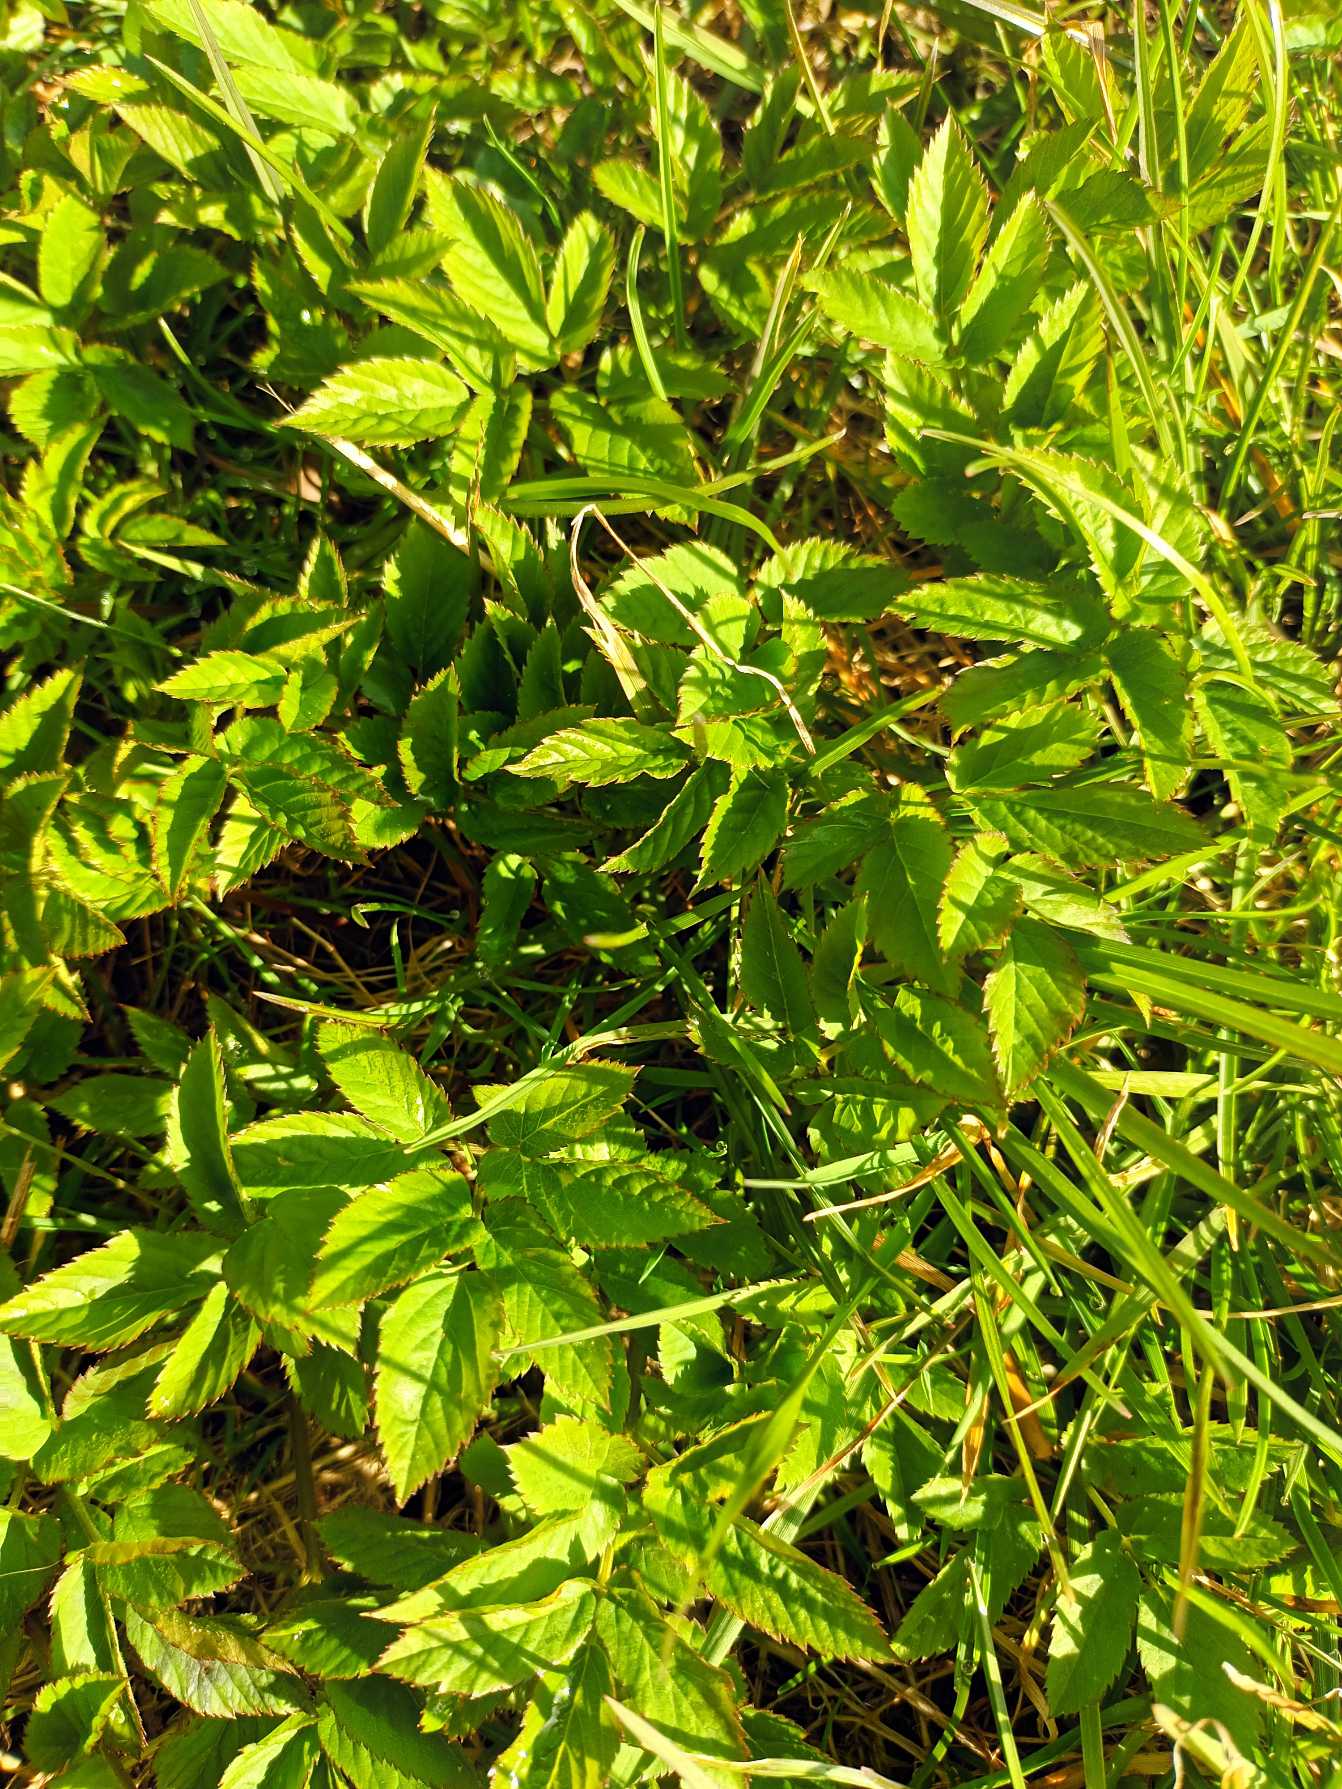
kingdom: Plantae
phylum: Tracheophyta
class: Magnoliopsida
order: Apiales
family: Apiaceae
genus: Aegopodium
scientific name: Aegopodium podagraria
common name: Skvalderkål
